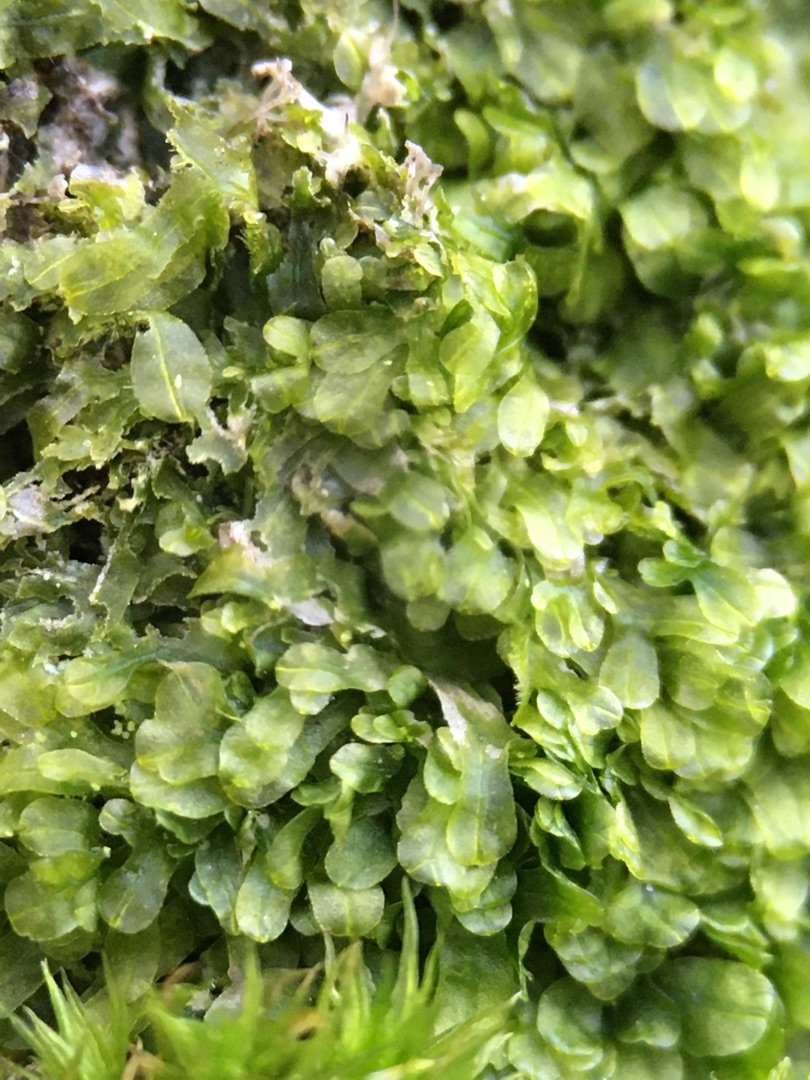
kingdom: Plantae
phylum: Marchantiophyta
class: Jungermanniopsida
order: Metzgeriales
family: Metzgeriaceae
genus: Metzgeria
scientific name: Metzgeria furcata
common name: Almindelig gaffelløv
